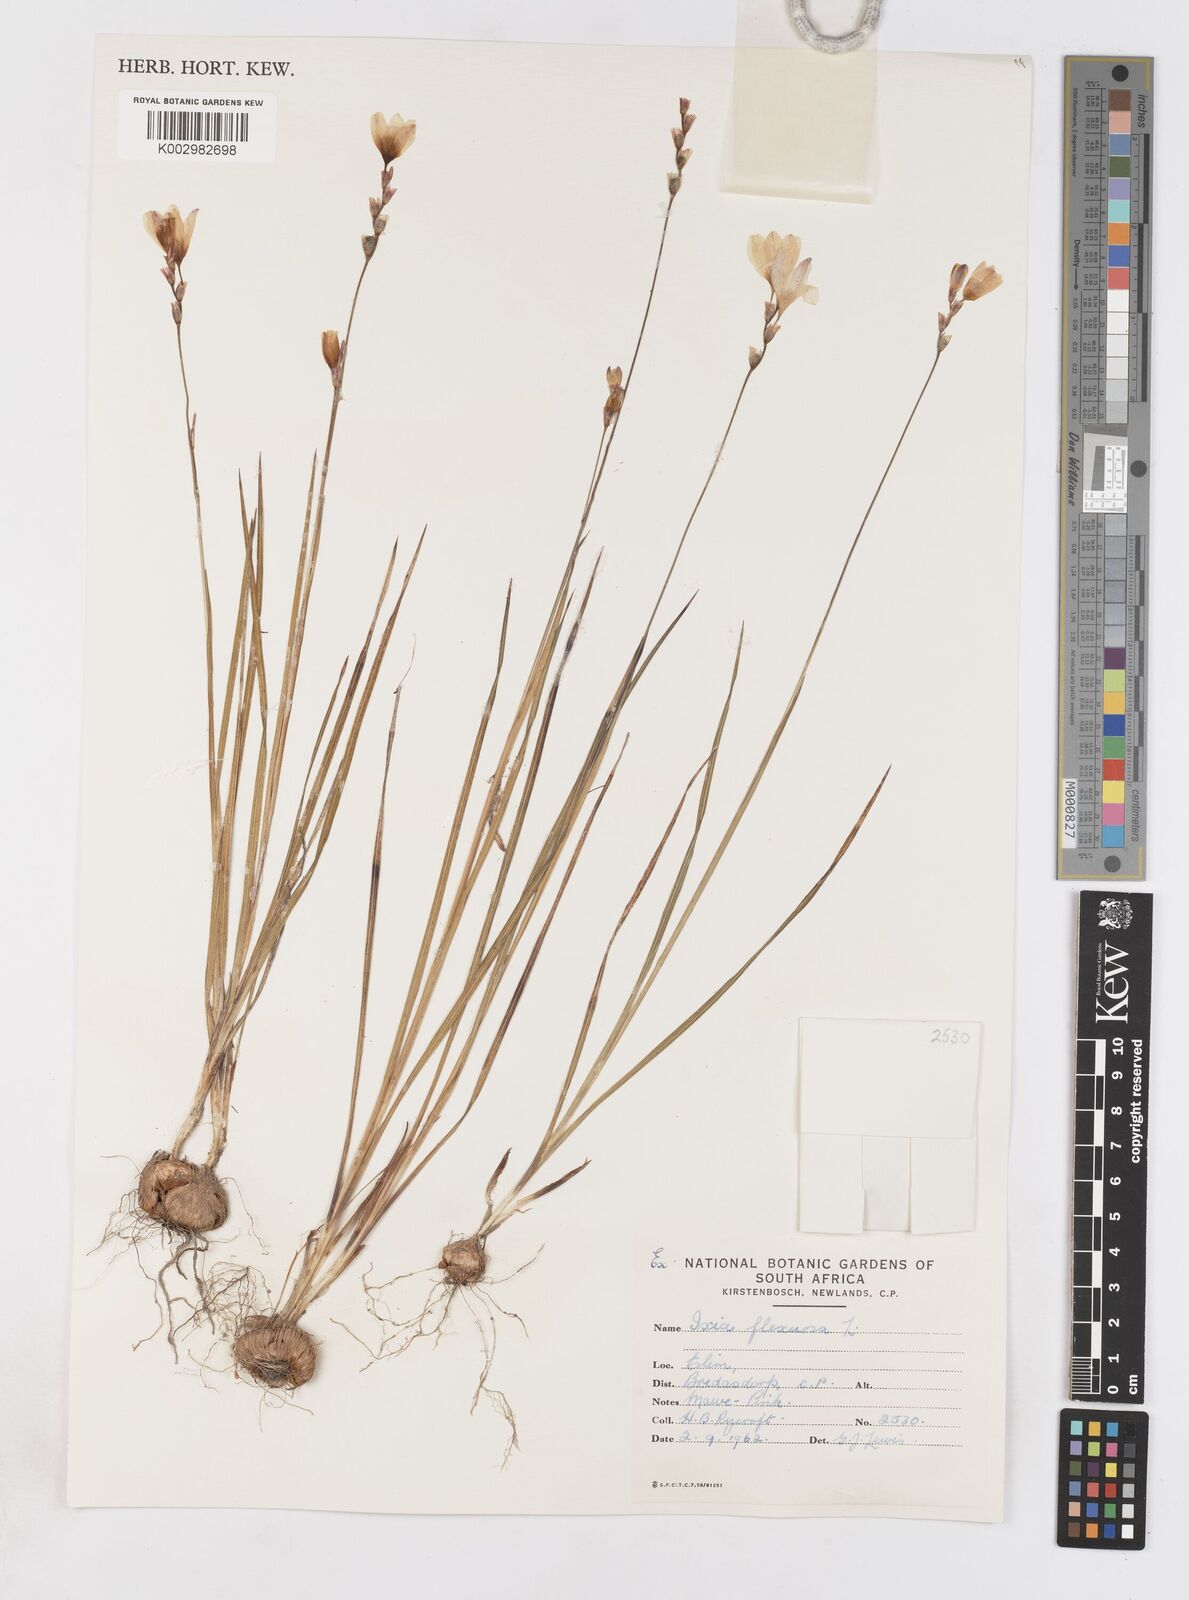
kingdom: Plantae
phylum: Tracheophyta
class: Liliopsida
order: Asparagales
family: Iridaceae
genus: Ixia
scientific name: Ixia flexuosa
